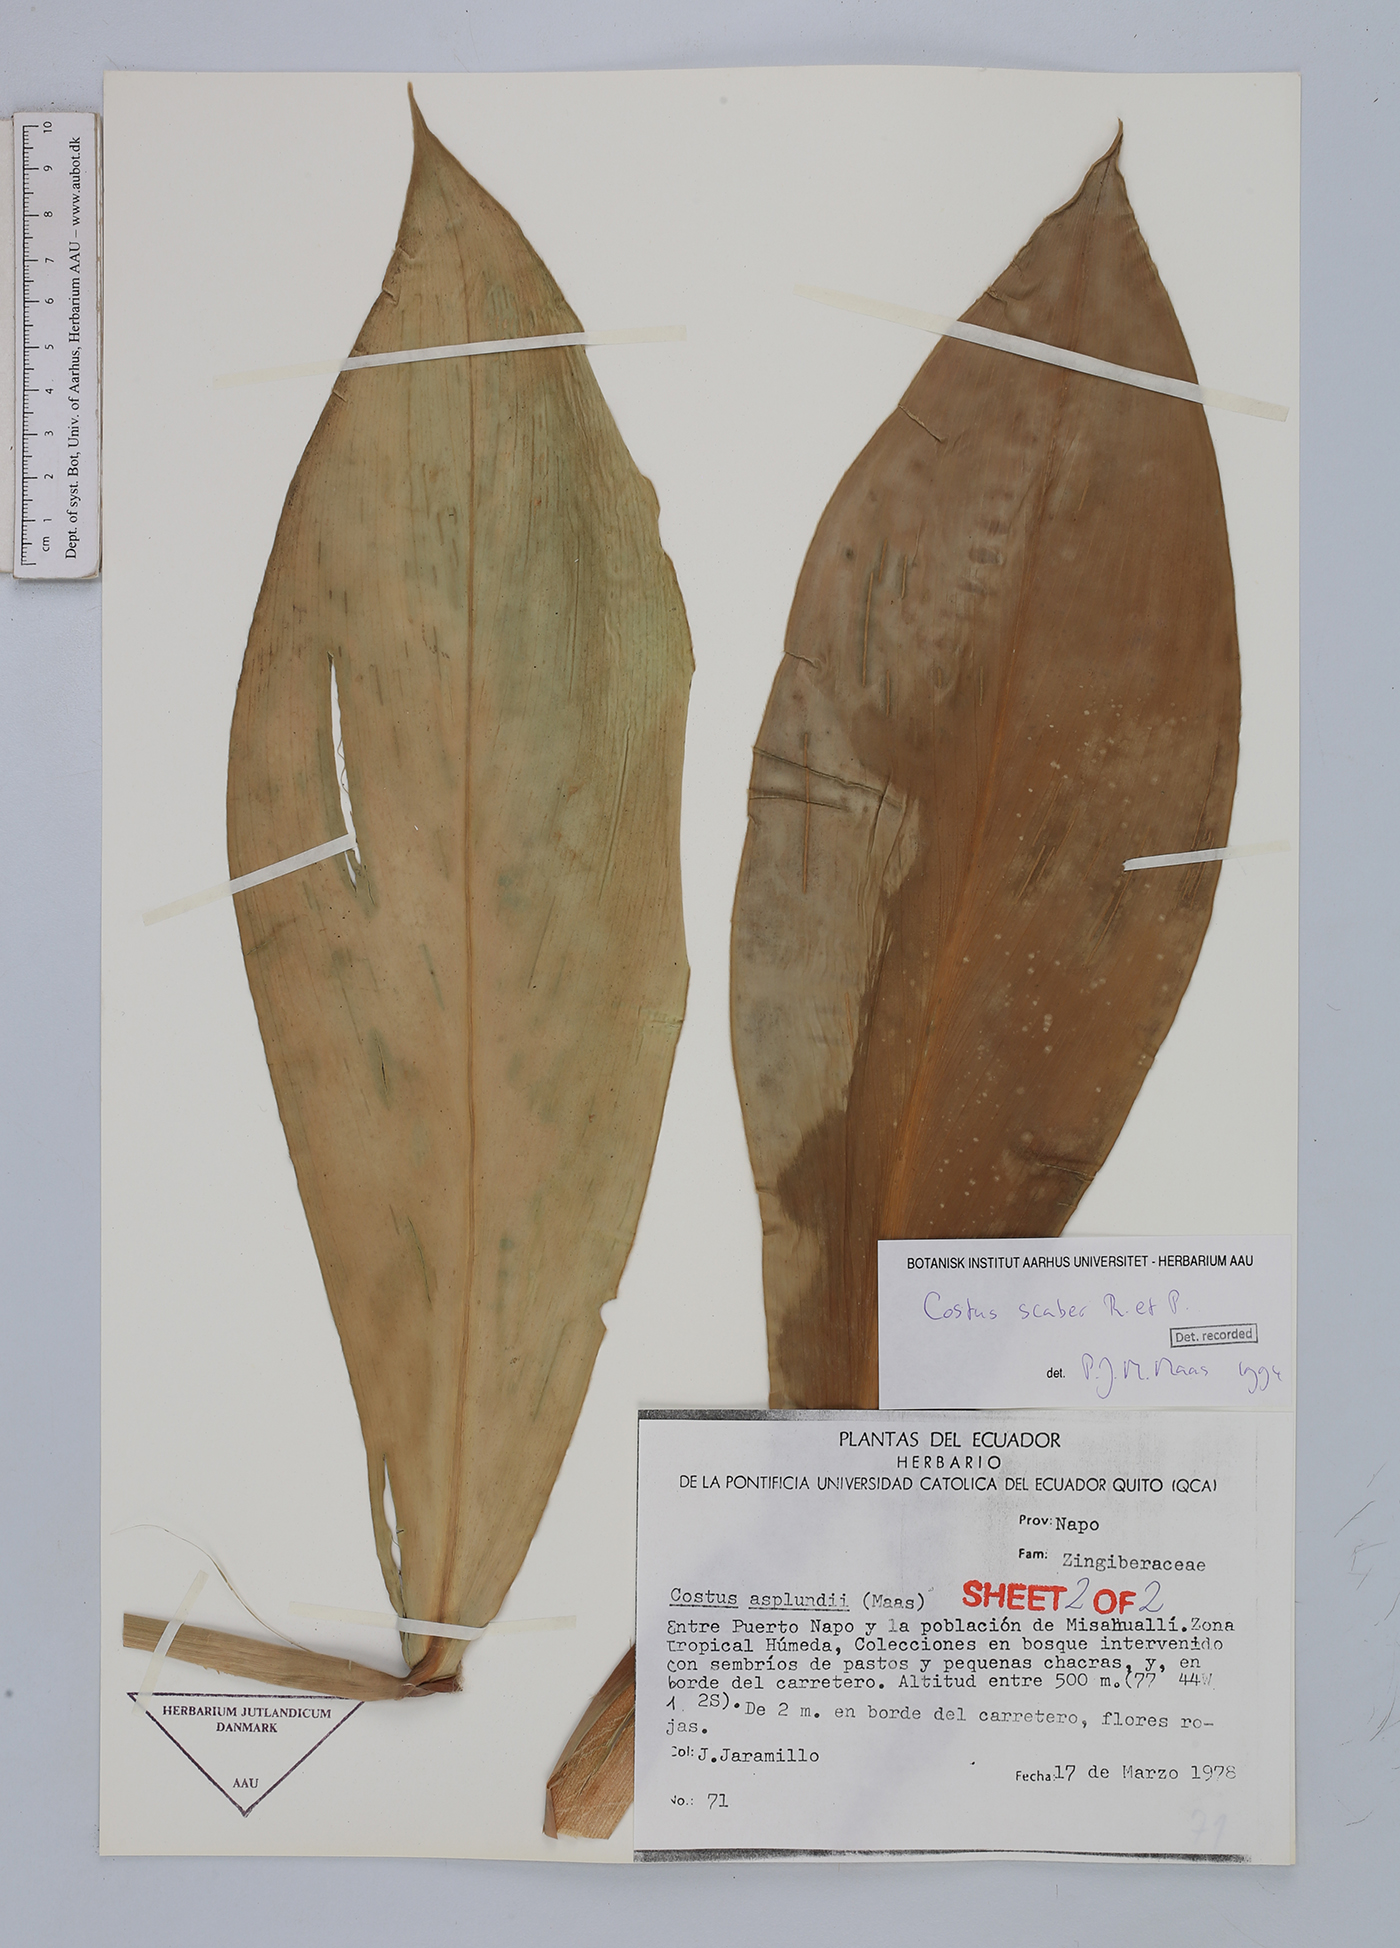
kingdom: Plantae
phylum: Tracheophyta
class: Liliopsida
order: Zingiberales
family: Costaceae
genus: Costus
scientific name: Costus scaber
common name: Spiral head ginger
